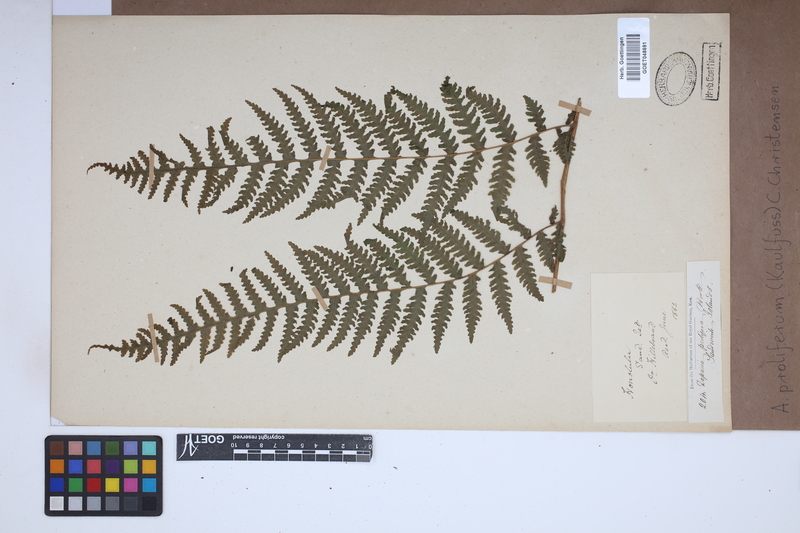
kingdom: Plantae
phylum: Tracheophyta
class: Polypodiopsida
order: Polypodiales
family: Athyriaceae
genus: Deparia
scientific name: Deparia prolifera
